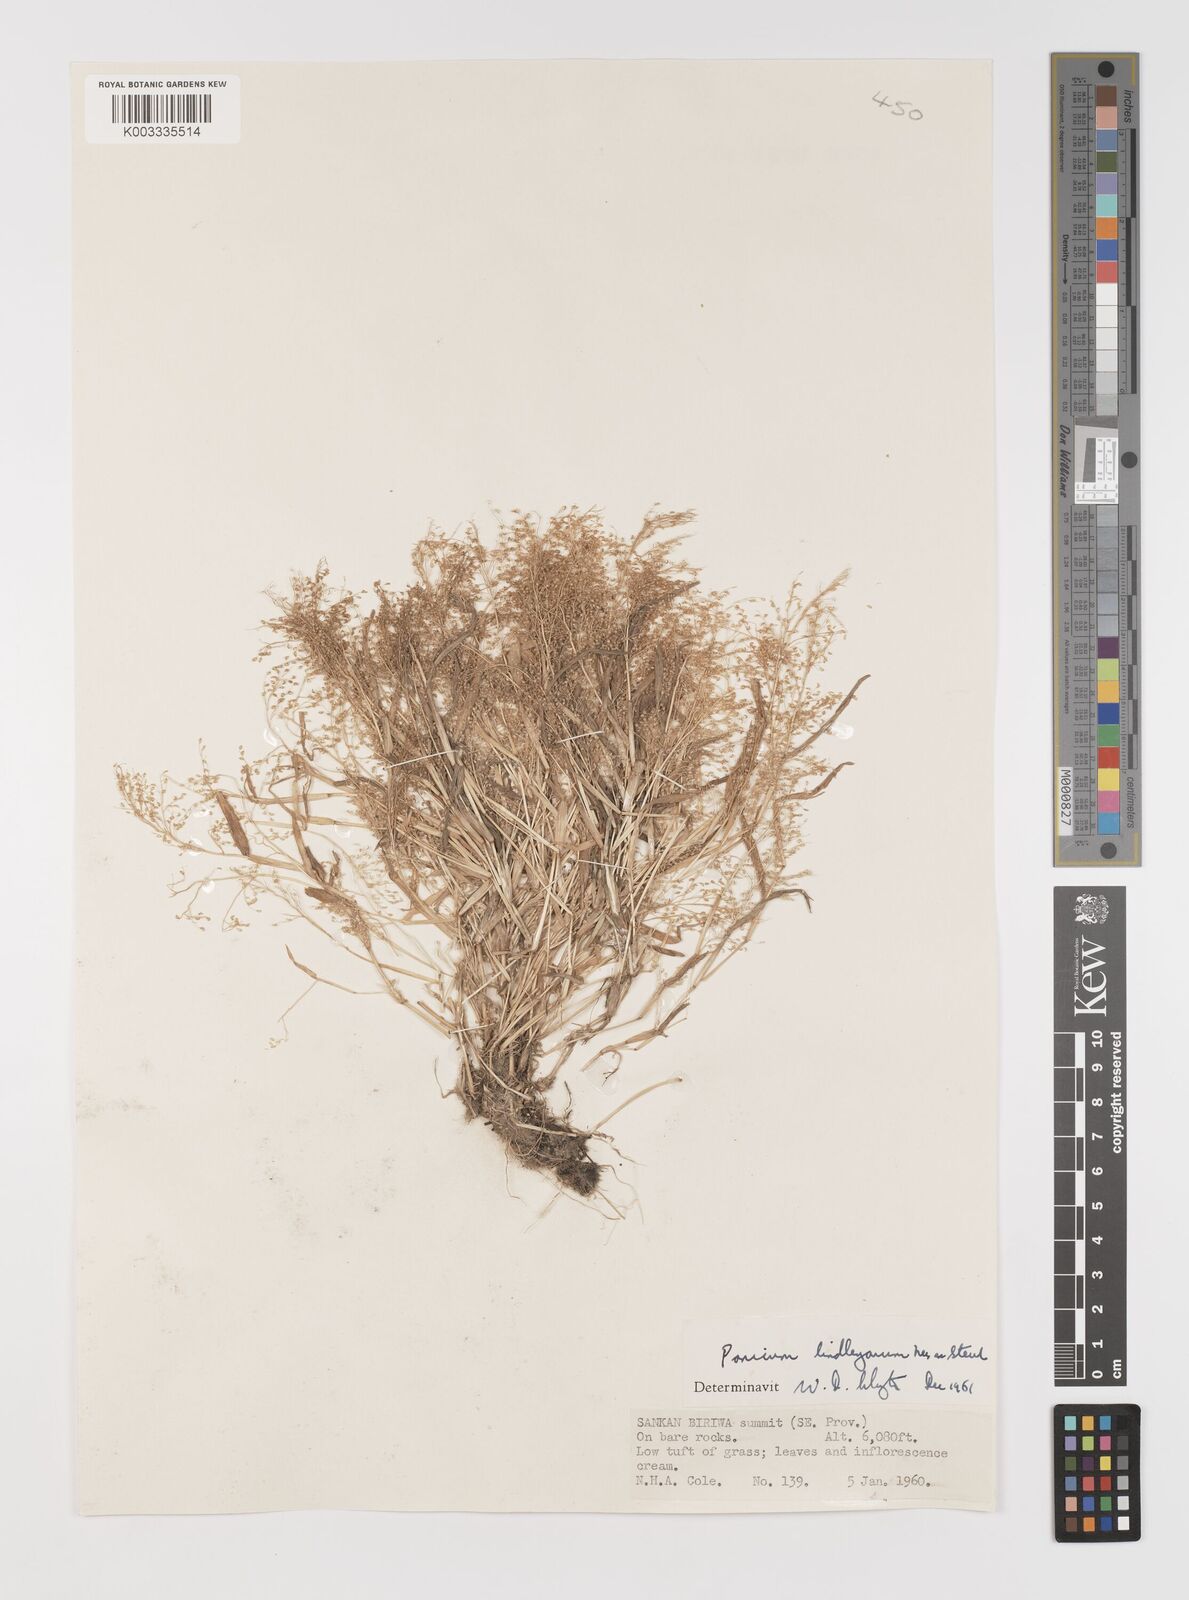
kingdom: Plantae
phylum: Tracheophyta
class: Liliopsida
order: Poales
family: Poaceae
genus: Trichanthecium
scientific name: Trichanthecium tenellum
